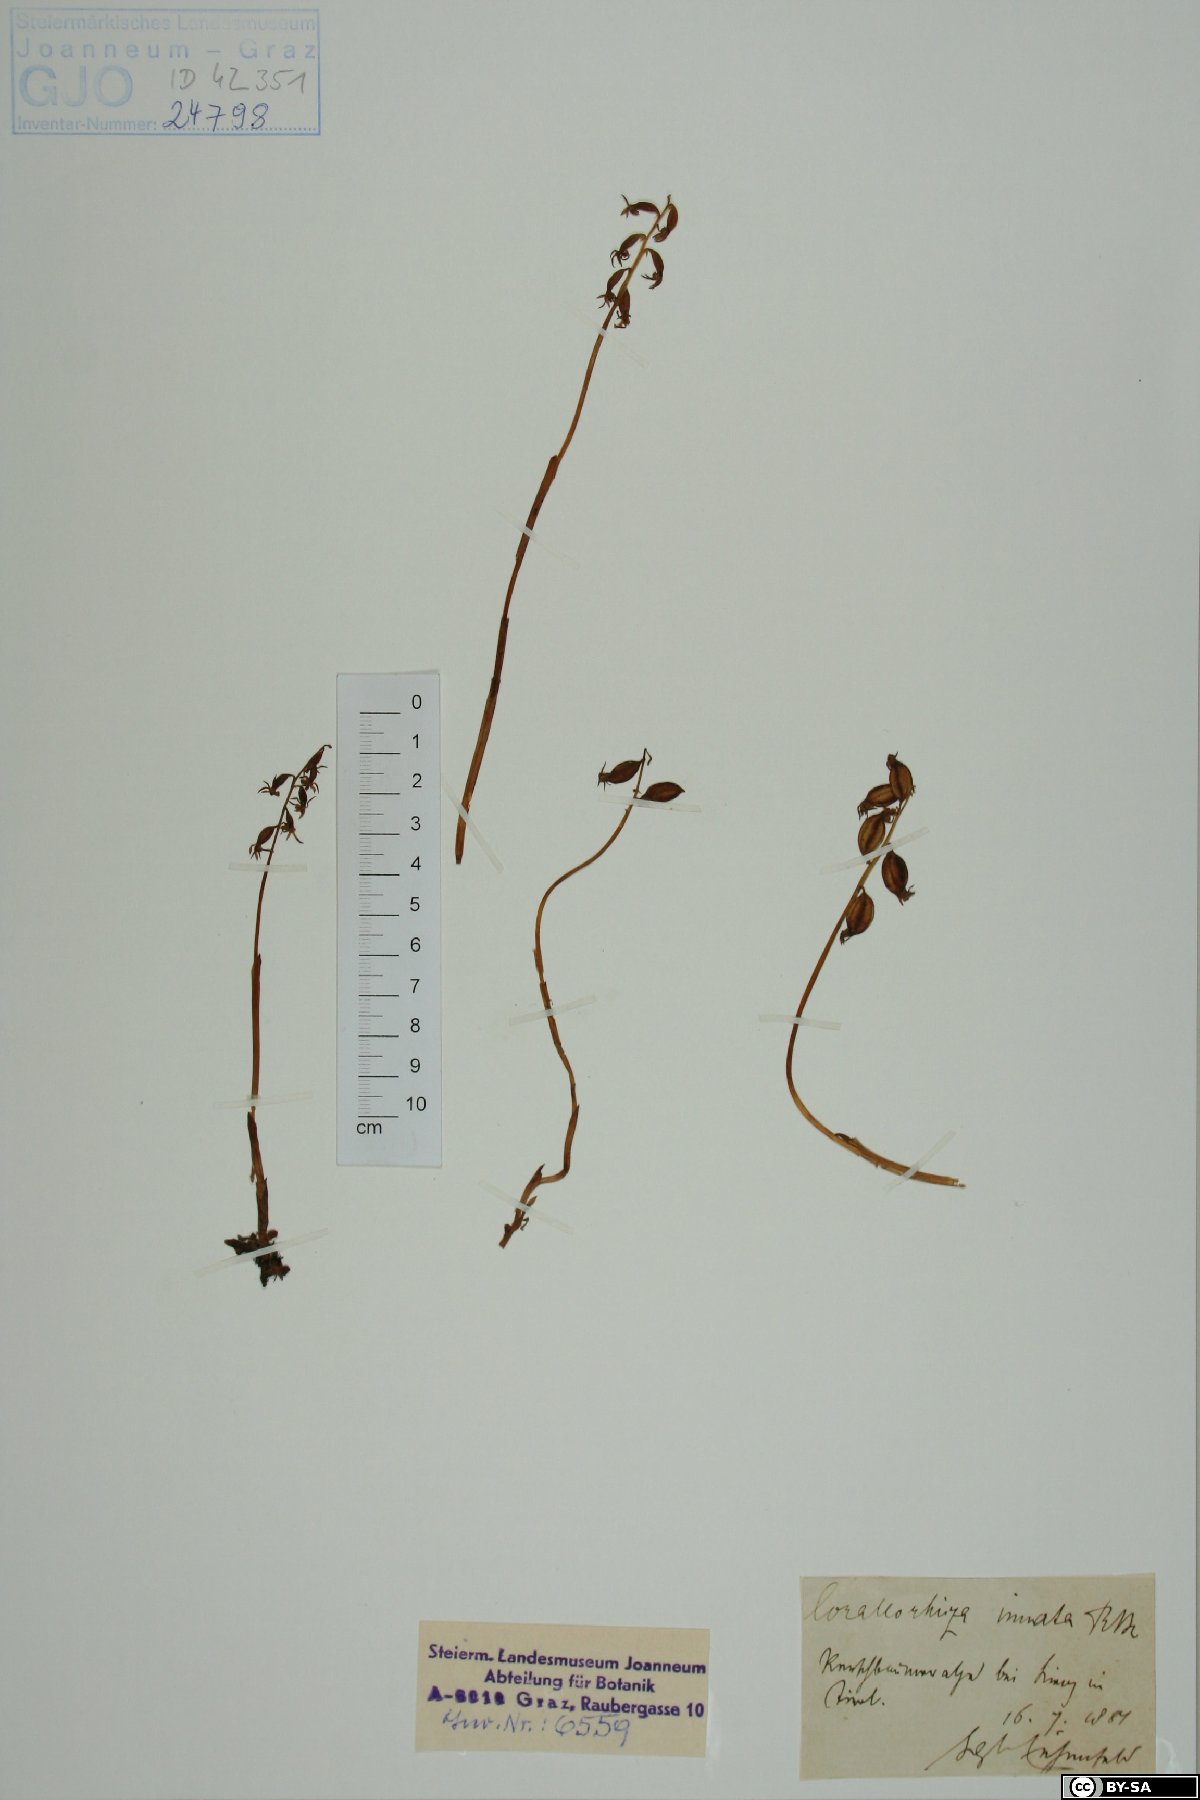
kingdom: Plantae
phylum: Tracheophyta
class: Liliopsida
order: Asparagales
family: Orchidaceae
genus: Corallorhiza
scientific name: Corallorhiza trifida
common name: Yellow coralroot
